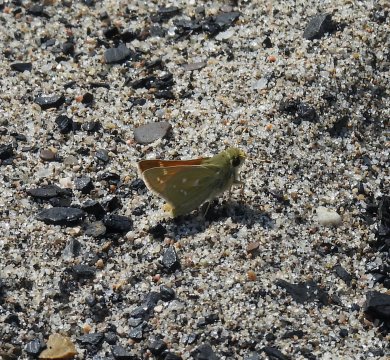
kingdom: Animalia
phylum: Arthropoda
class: Insecta
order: Lepidoptera
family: Hesperiidae
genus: Hesperia
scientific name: Hesperia nevada
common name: Nevada Skipper
